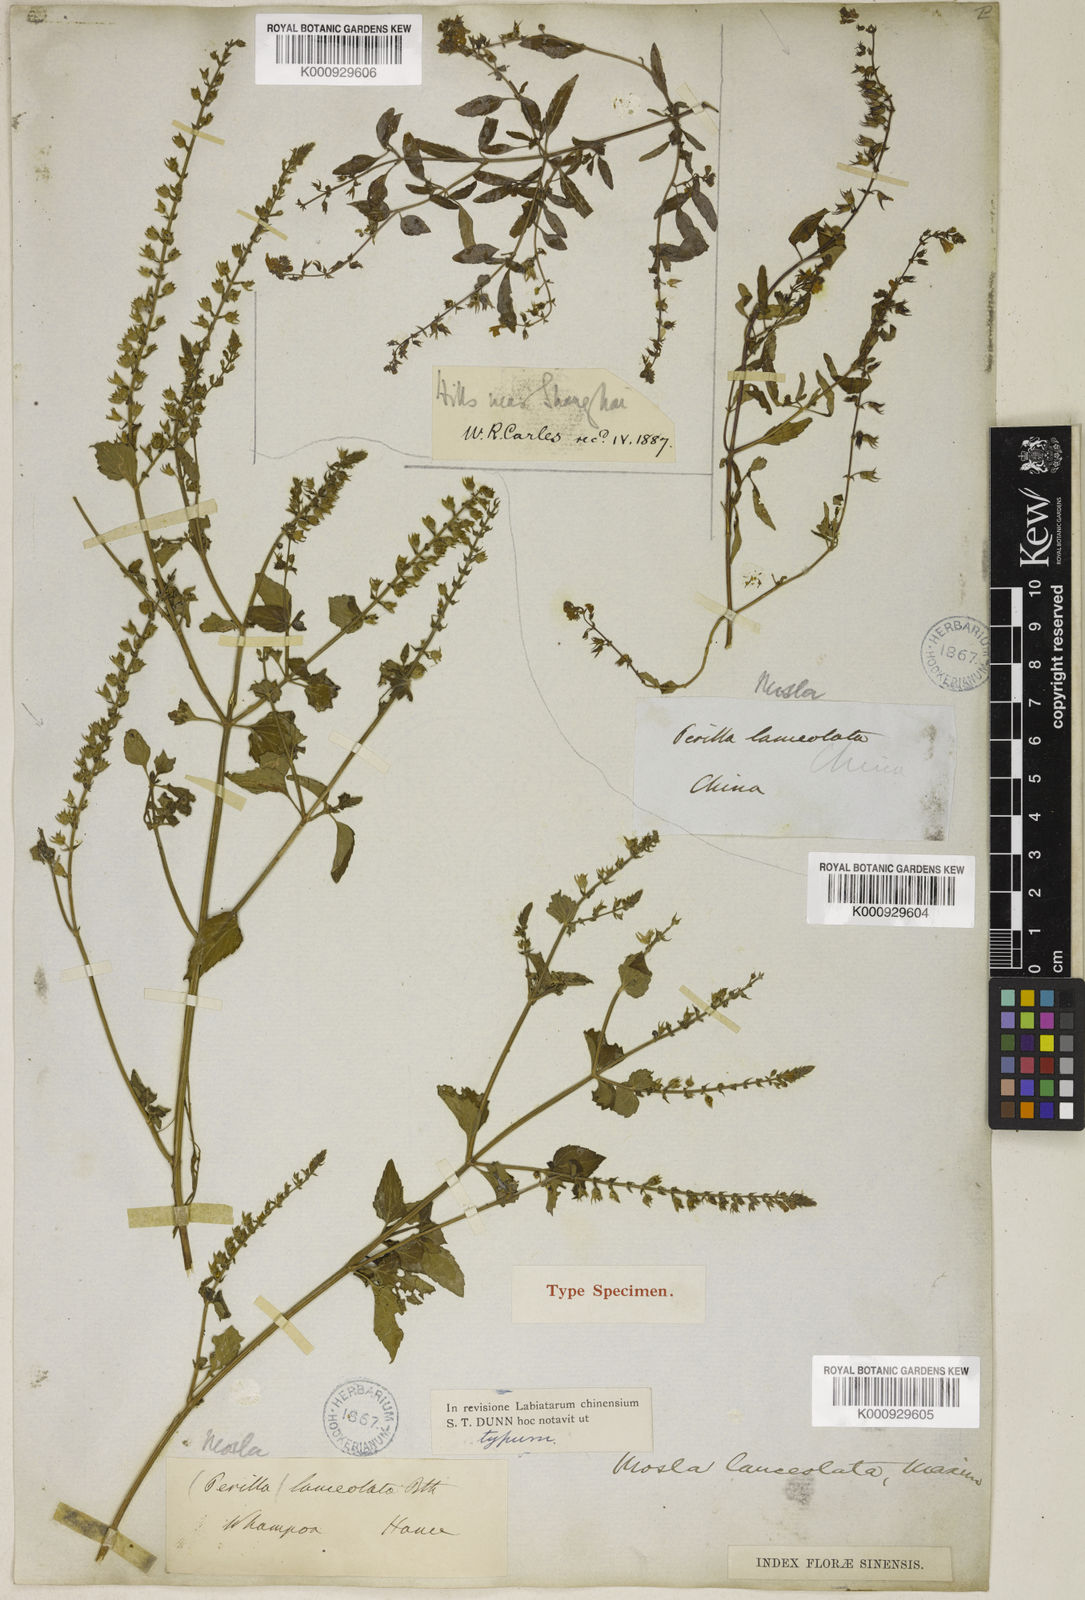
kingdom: Plantae
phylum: Tracheophyta
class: Magnoliopsida
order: Lamiales
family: Lamiaceae
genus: Mosla
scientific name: Mosla scabra
